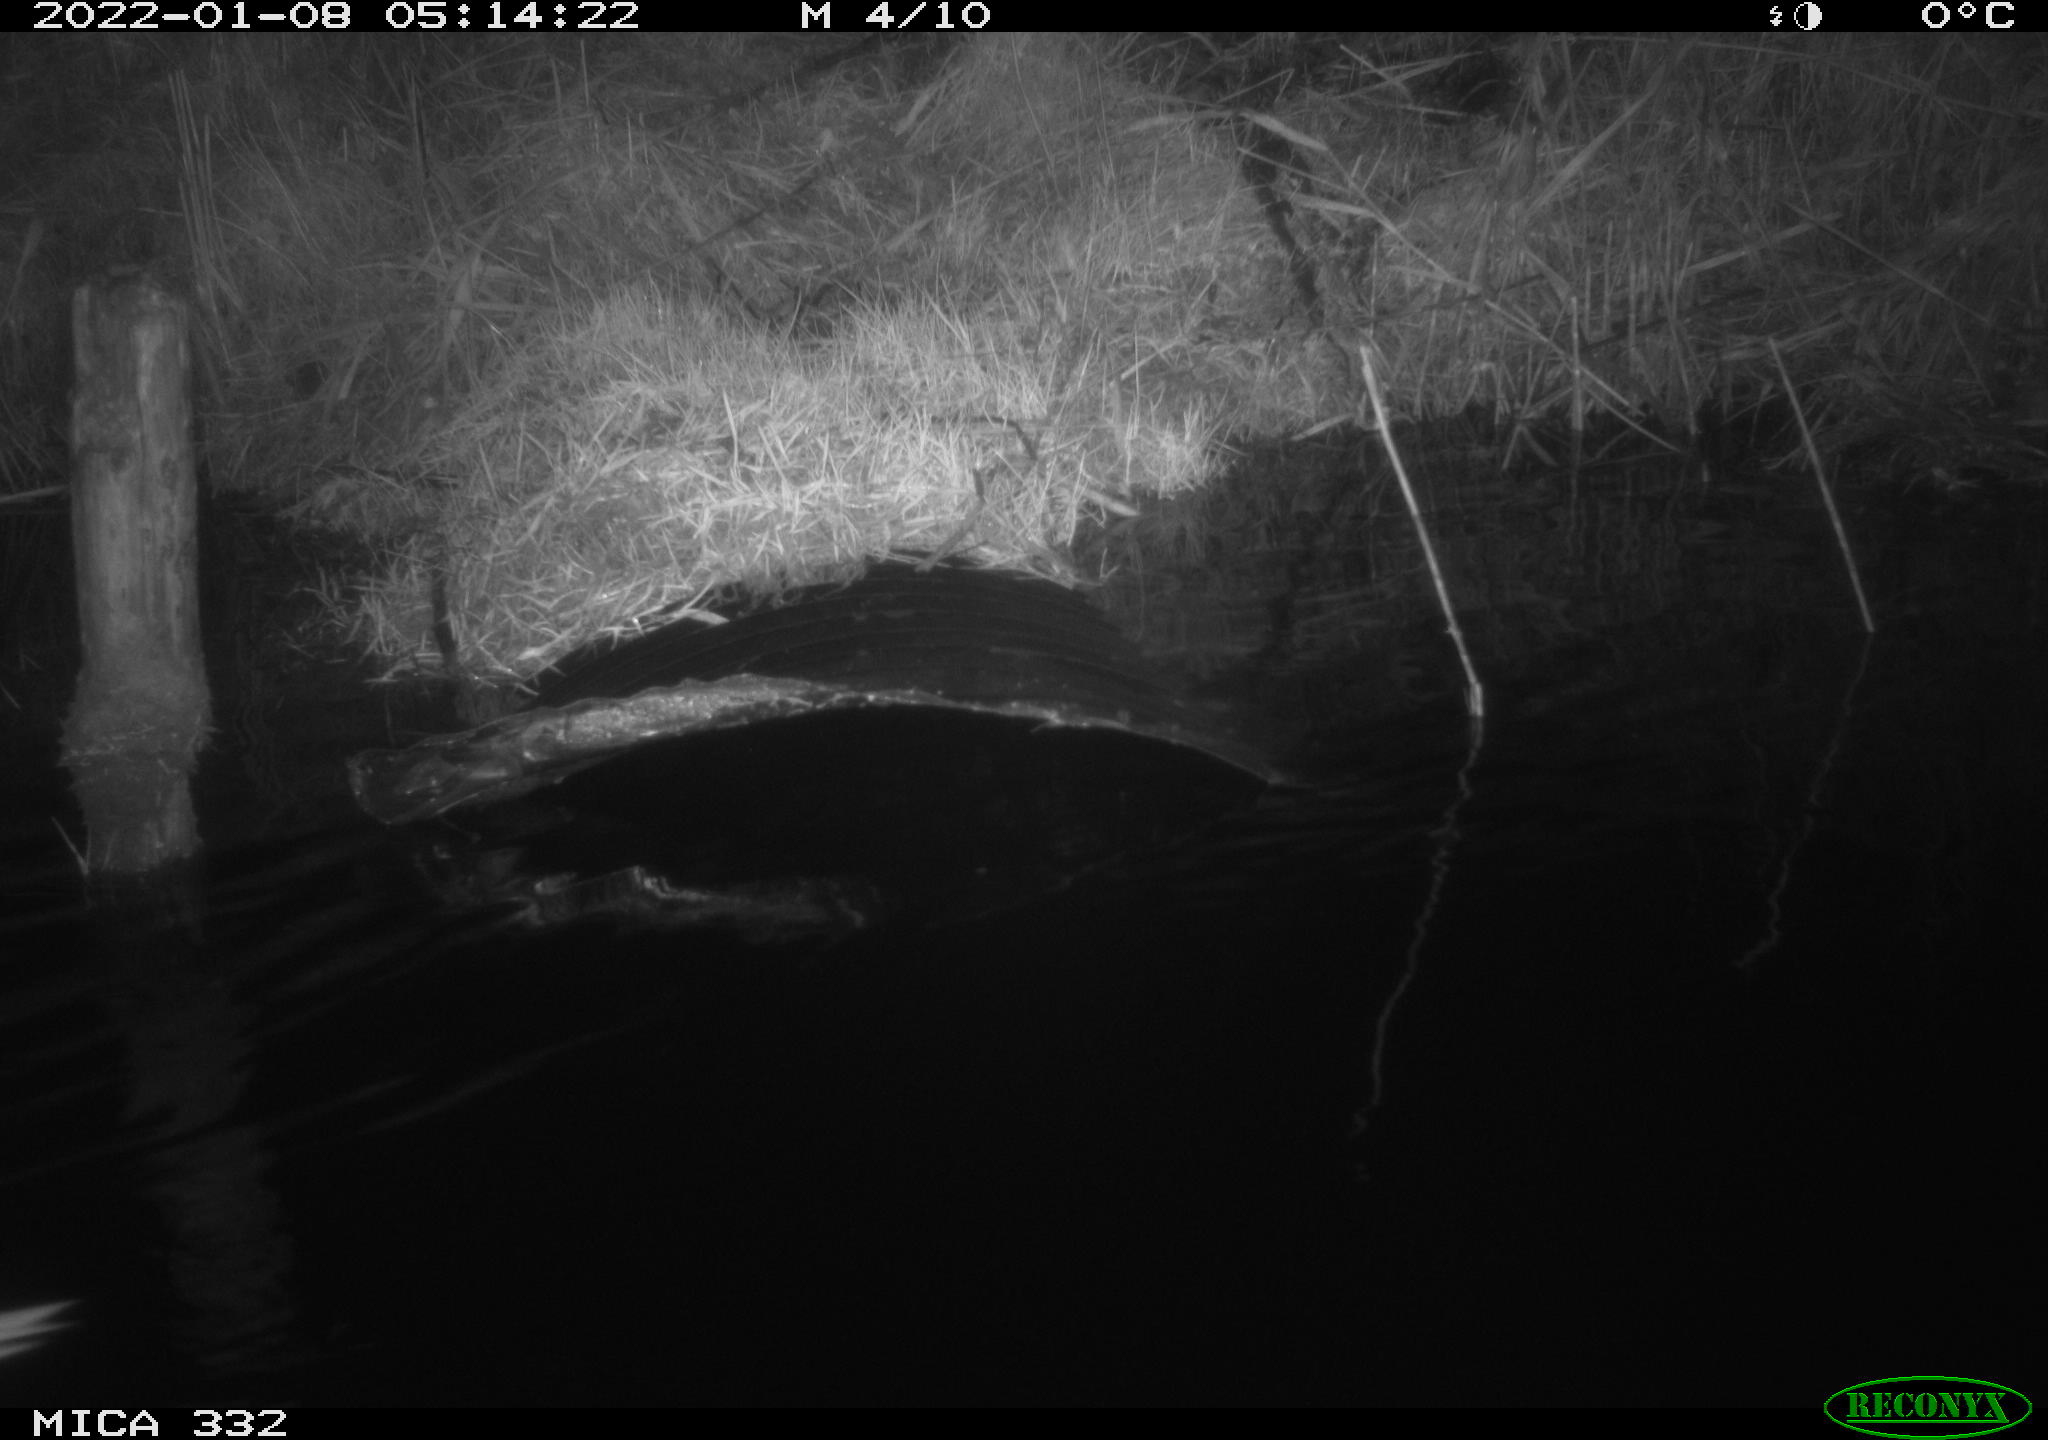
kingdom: Animalia
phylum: Chordata
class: Aves
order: Anseriformes
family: Anatidae
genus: Cygnus
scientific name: Cygnus olor
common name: Mute swan
